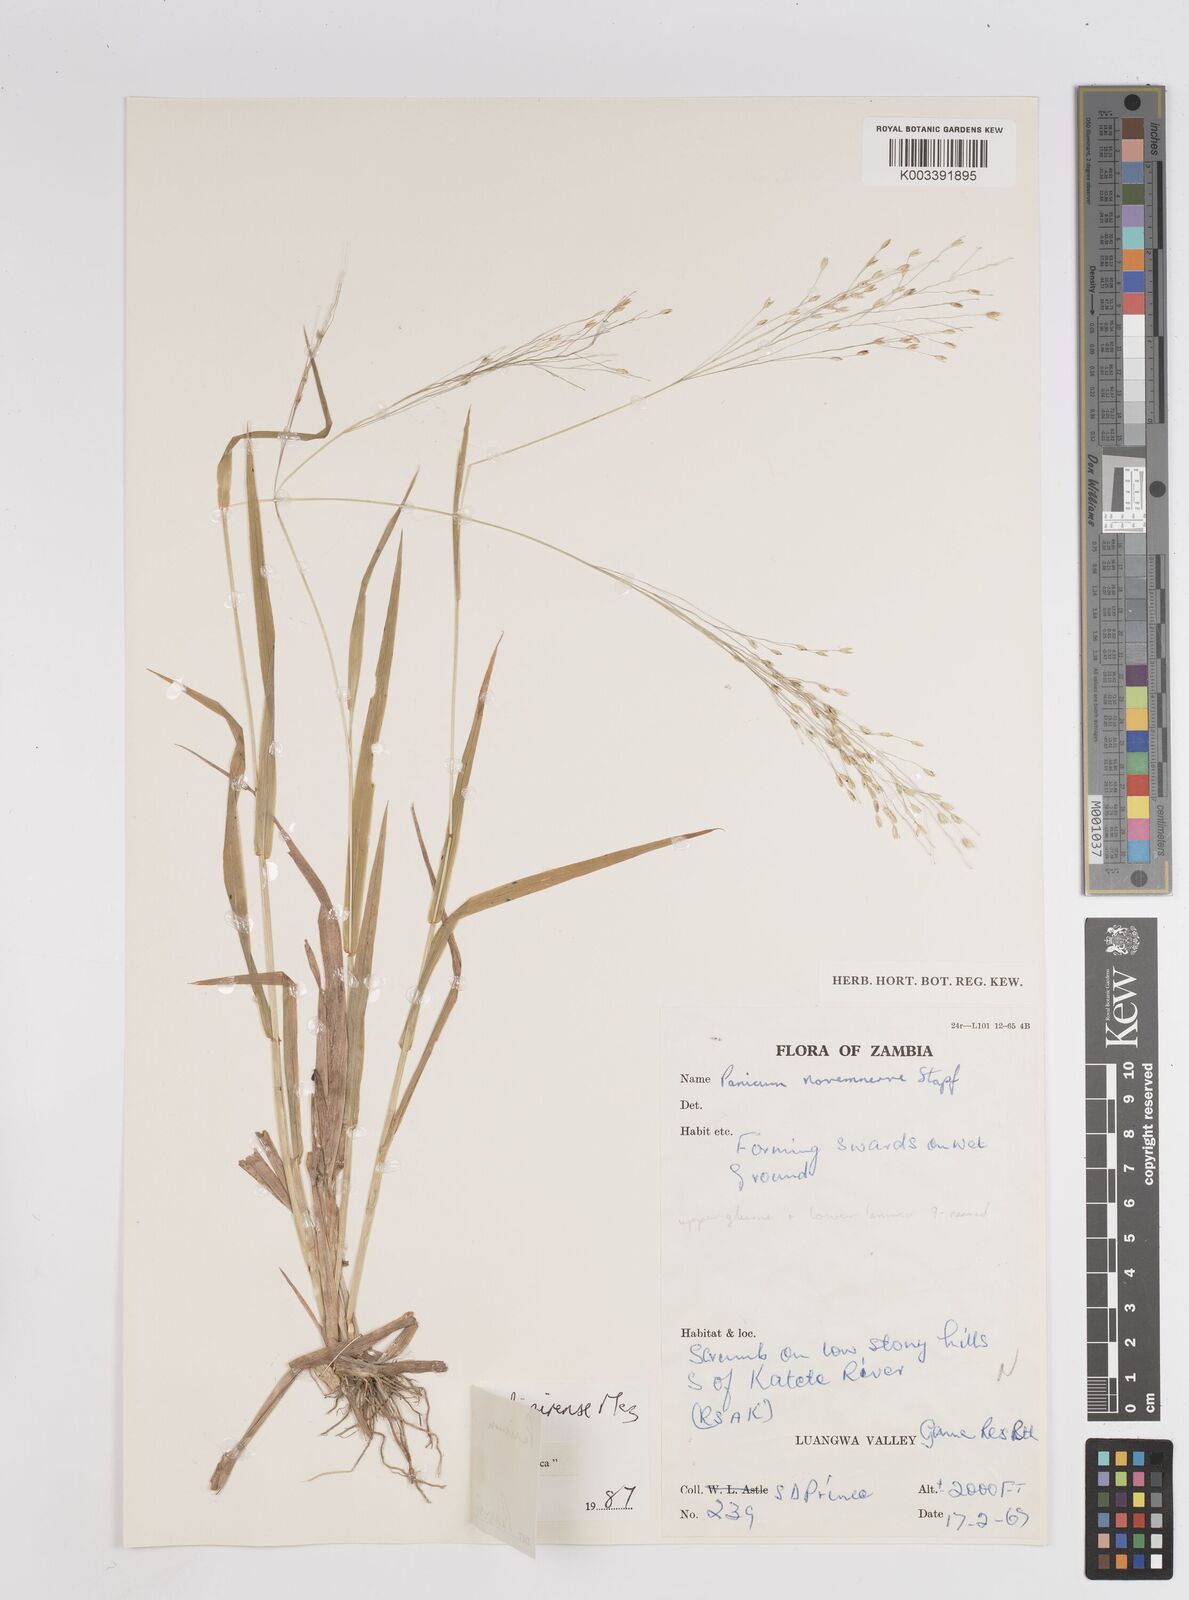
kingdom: Plantae
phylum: Tracheophyta
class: Liliopsida
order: Poales
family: Poaceae
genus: Panicum
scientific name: Panicum madipirense
